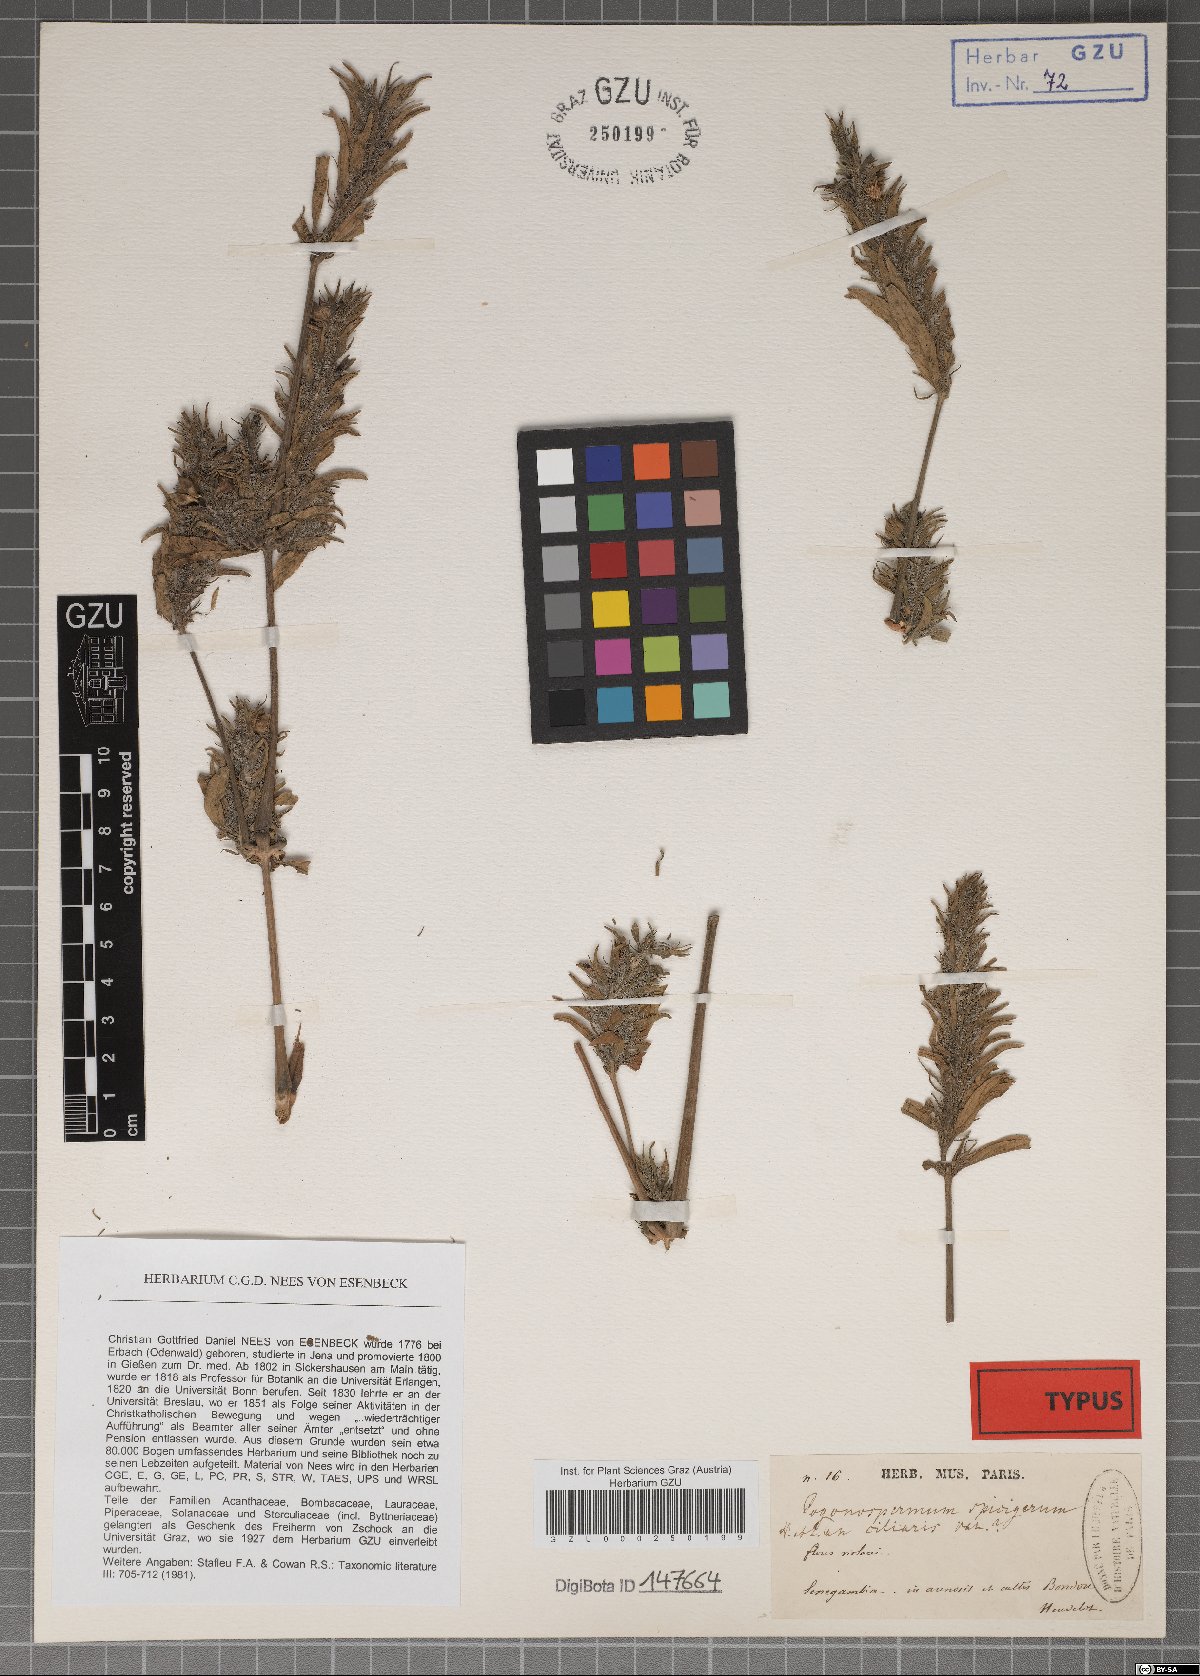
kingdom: Plantae
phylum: Tracheophyta
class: Magnoliopsida
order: Lamiales
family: Acanthaceae
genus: Pogonospermum
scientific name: Pogonospermum ciliare
